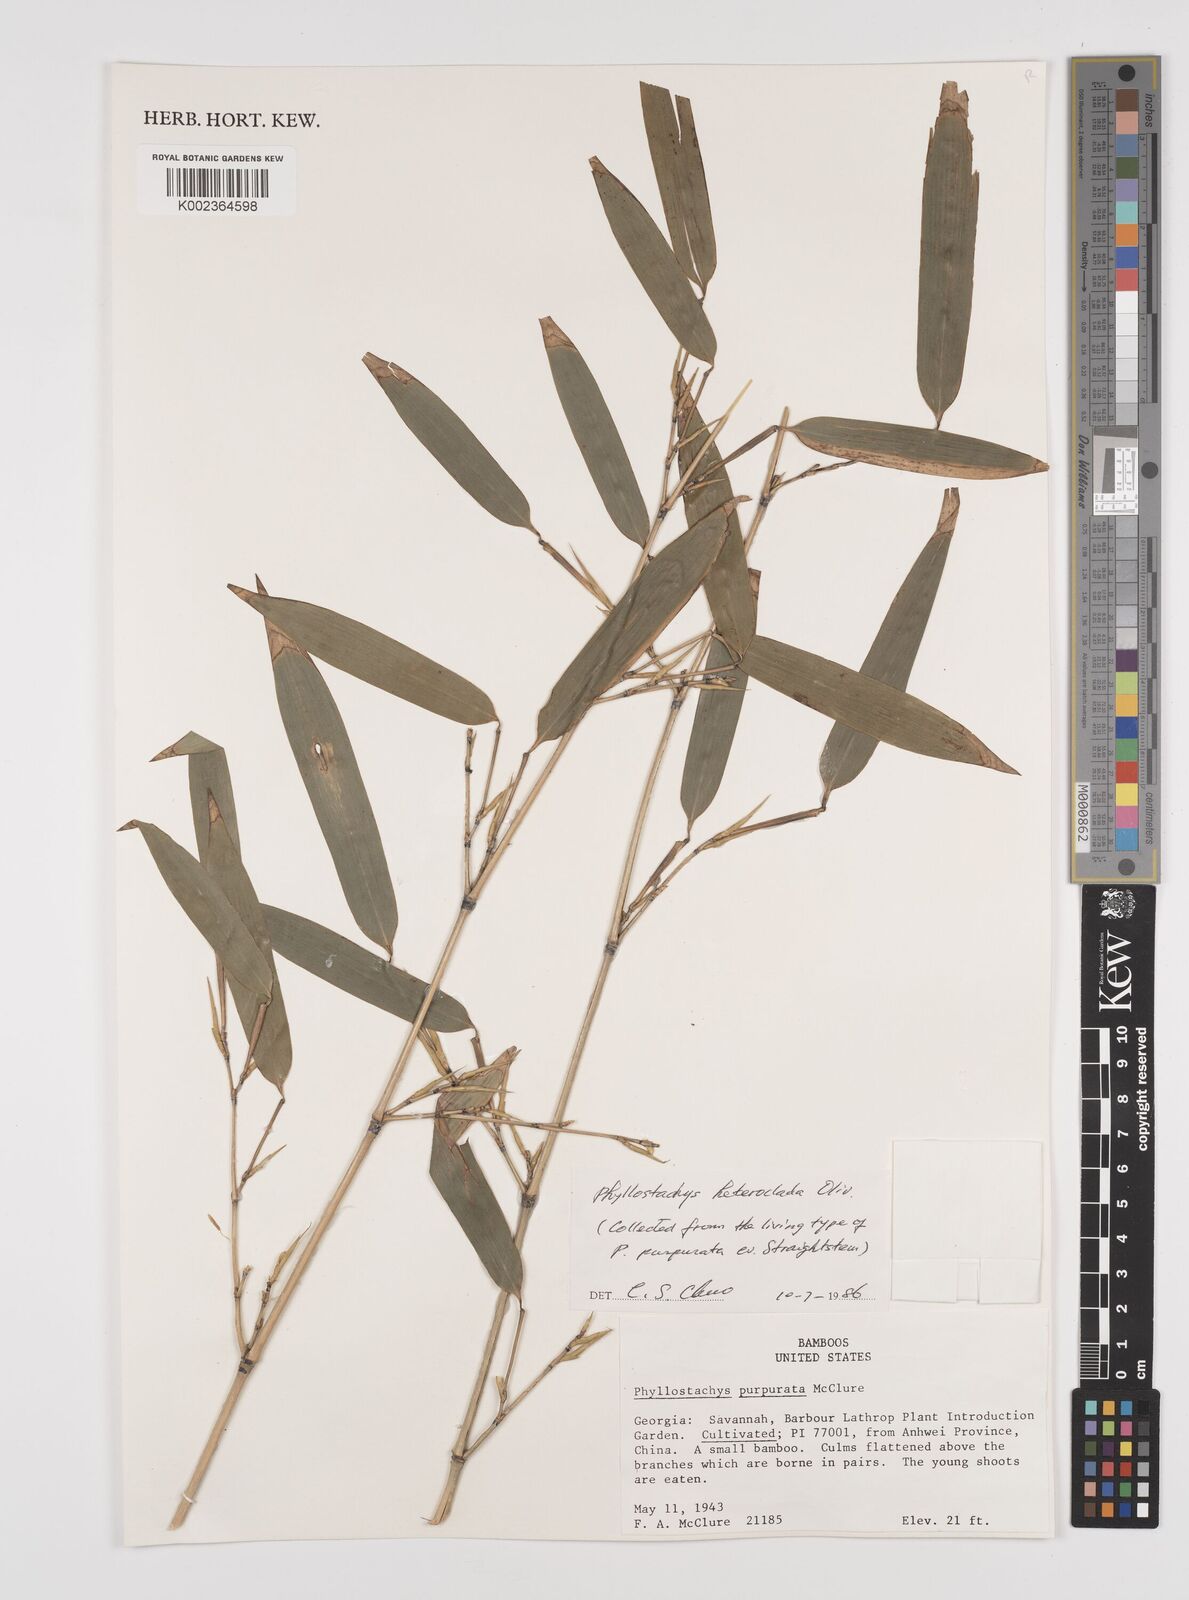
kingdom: Plantae
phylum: Tracheophyta
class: Liliopsida
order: Poales
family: Poaceae
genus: Phyllostachys
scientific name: Phyllostachys heteroclada
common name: Fishscale bamboo
